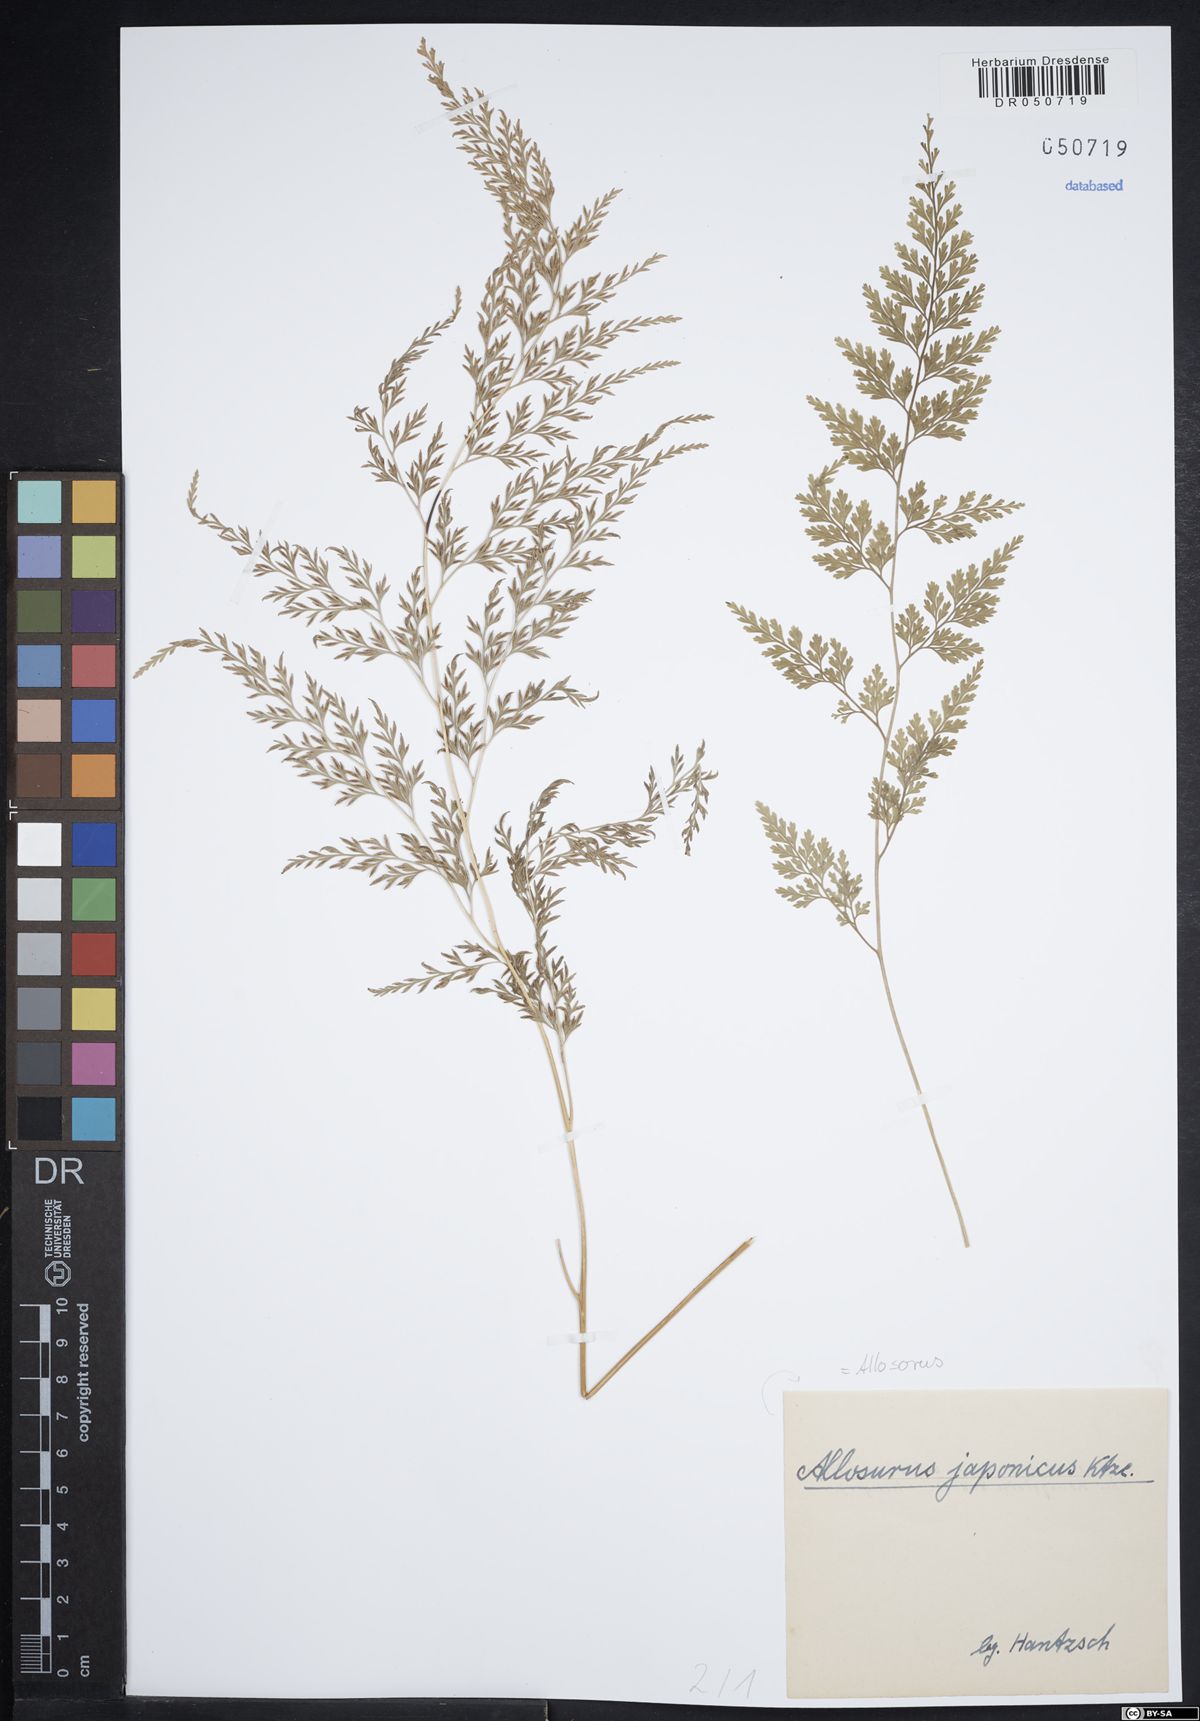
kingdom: Plantae
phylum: Tracheophyta
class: Polypodiopsida
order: Polypodiales
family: Adiantaceae
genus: Allosorus
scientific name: Allosorus
